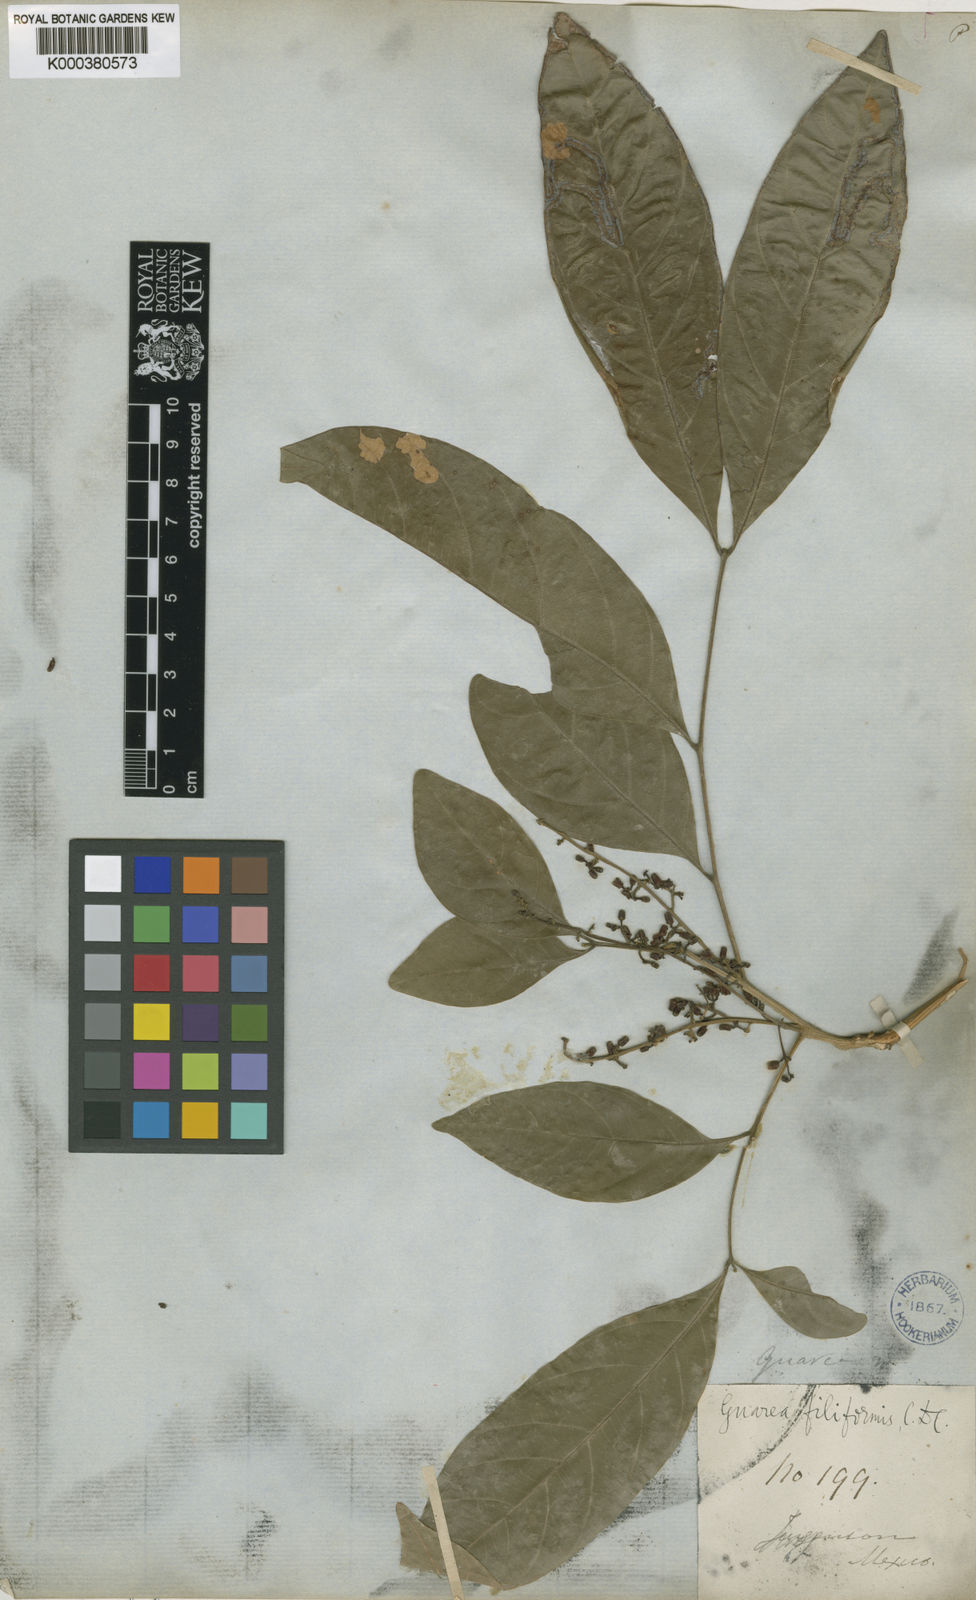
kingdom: Plantae
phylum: Tracheophyta
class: Magnoliopsida
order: Sapindales
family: Meliaceae
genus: Guarea
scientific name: Guarea glabra
